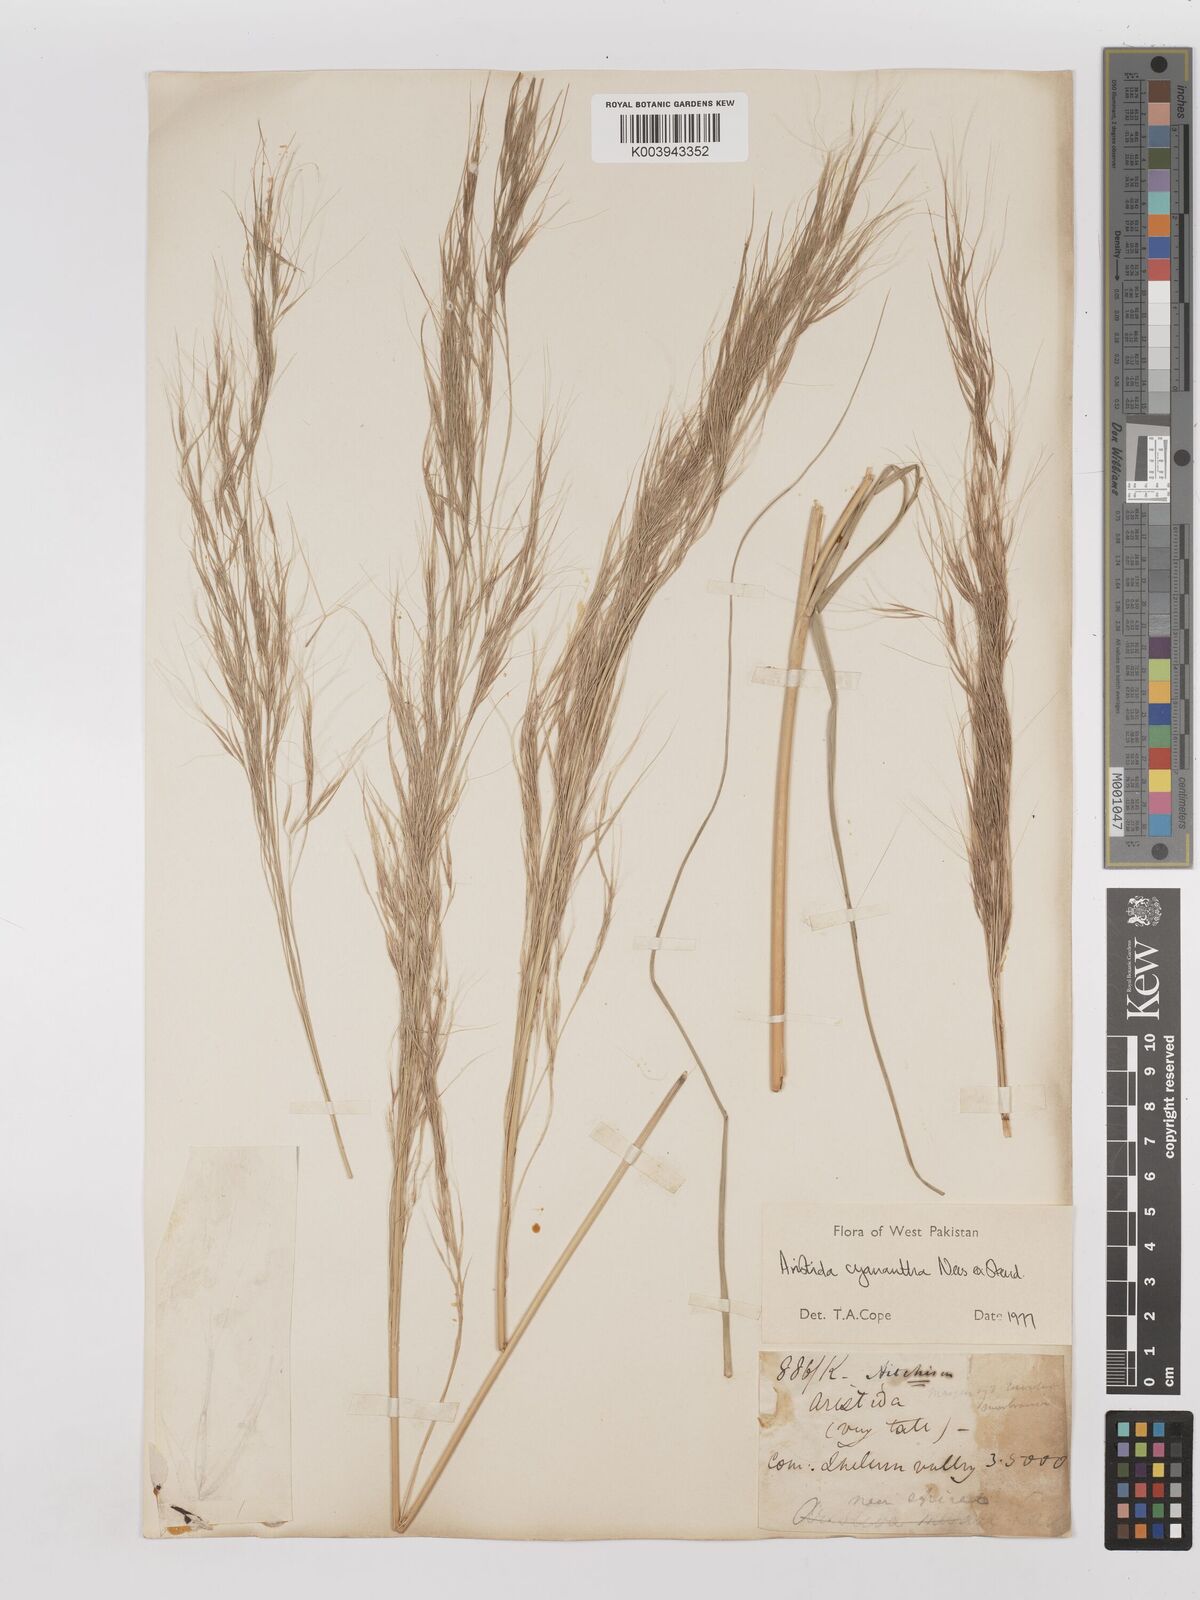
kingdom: Plantae
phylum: Tracheophyta
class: Liliopsida
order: Poales
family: Poaceae
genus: Aristida
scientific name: Aristida cyanantha
